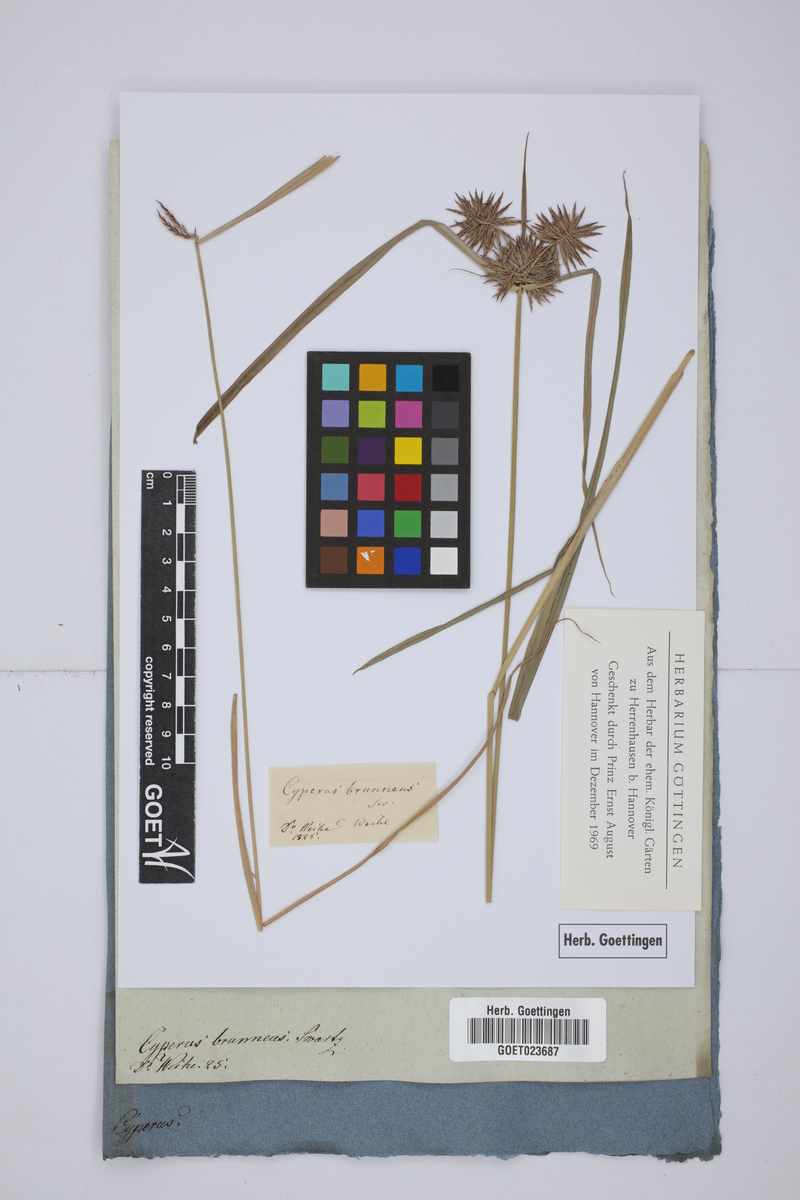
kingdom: Plantae
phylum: Tracheophyta
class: Liliopsida
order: Poales
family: Cyperaceae
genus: Cyperus
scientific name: Cyperus planifolius
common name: Bullgrass
